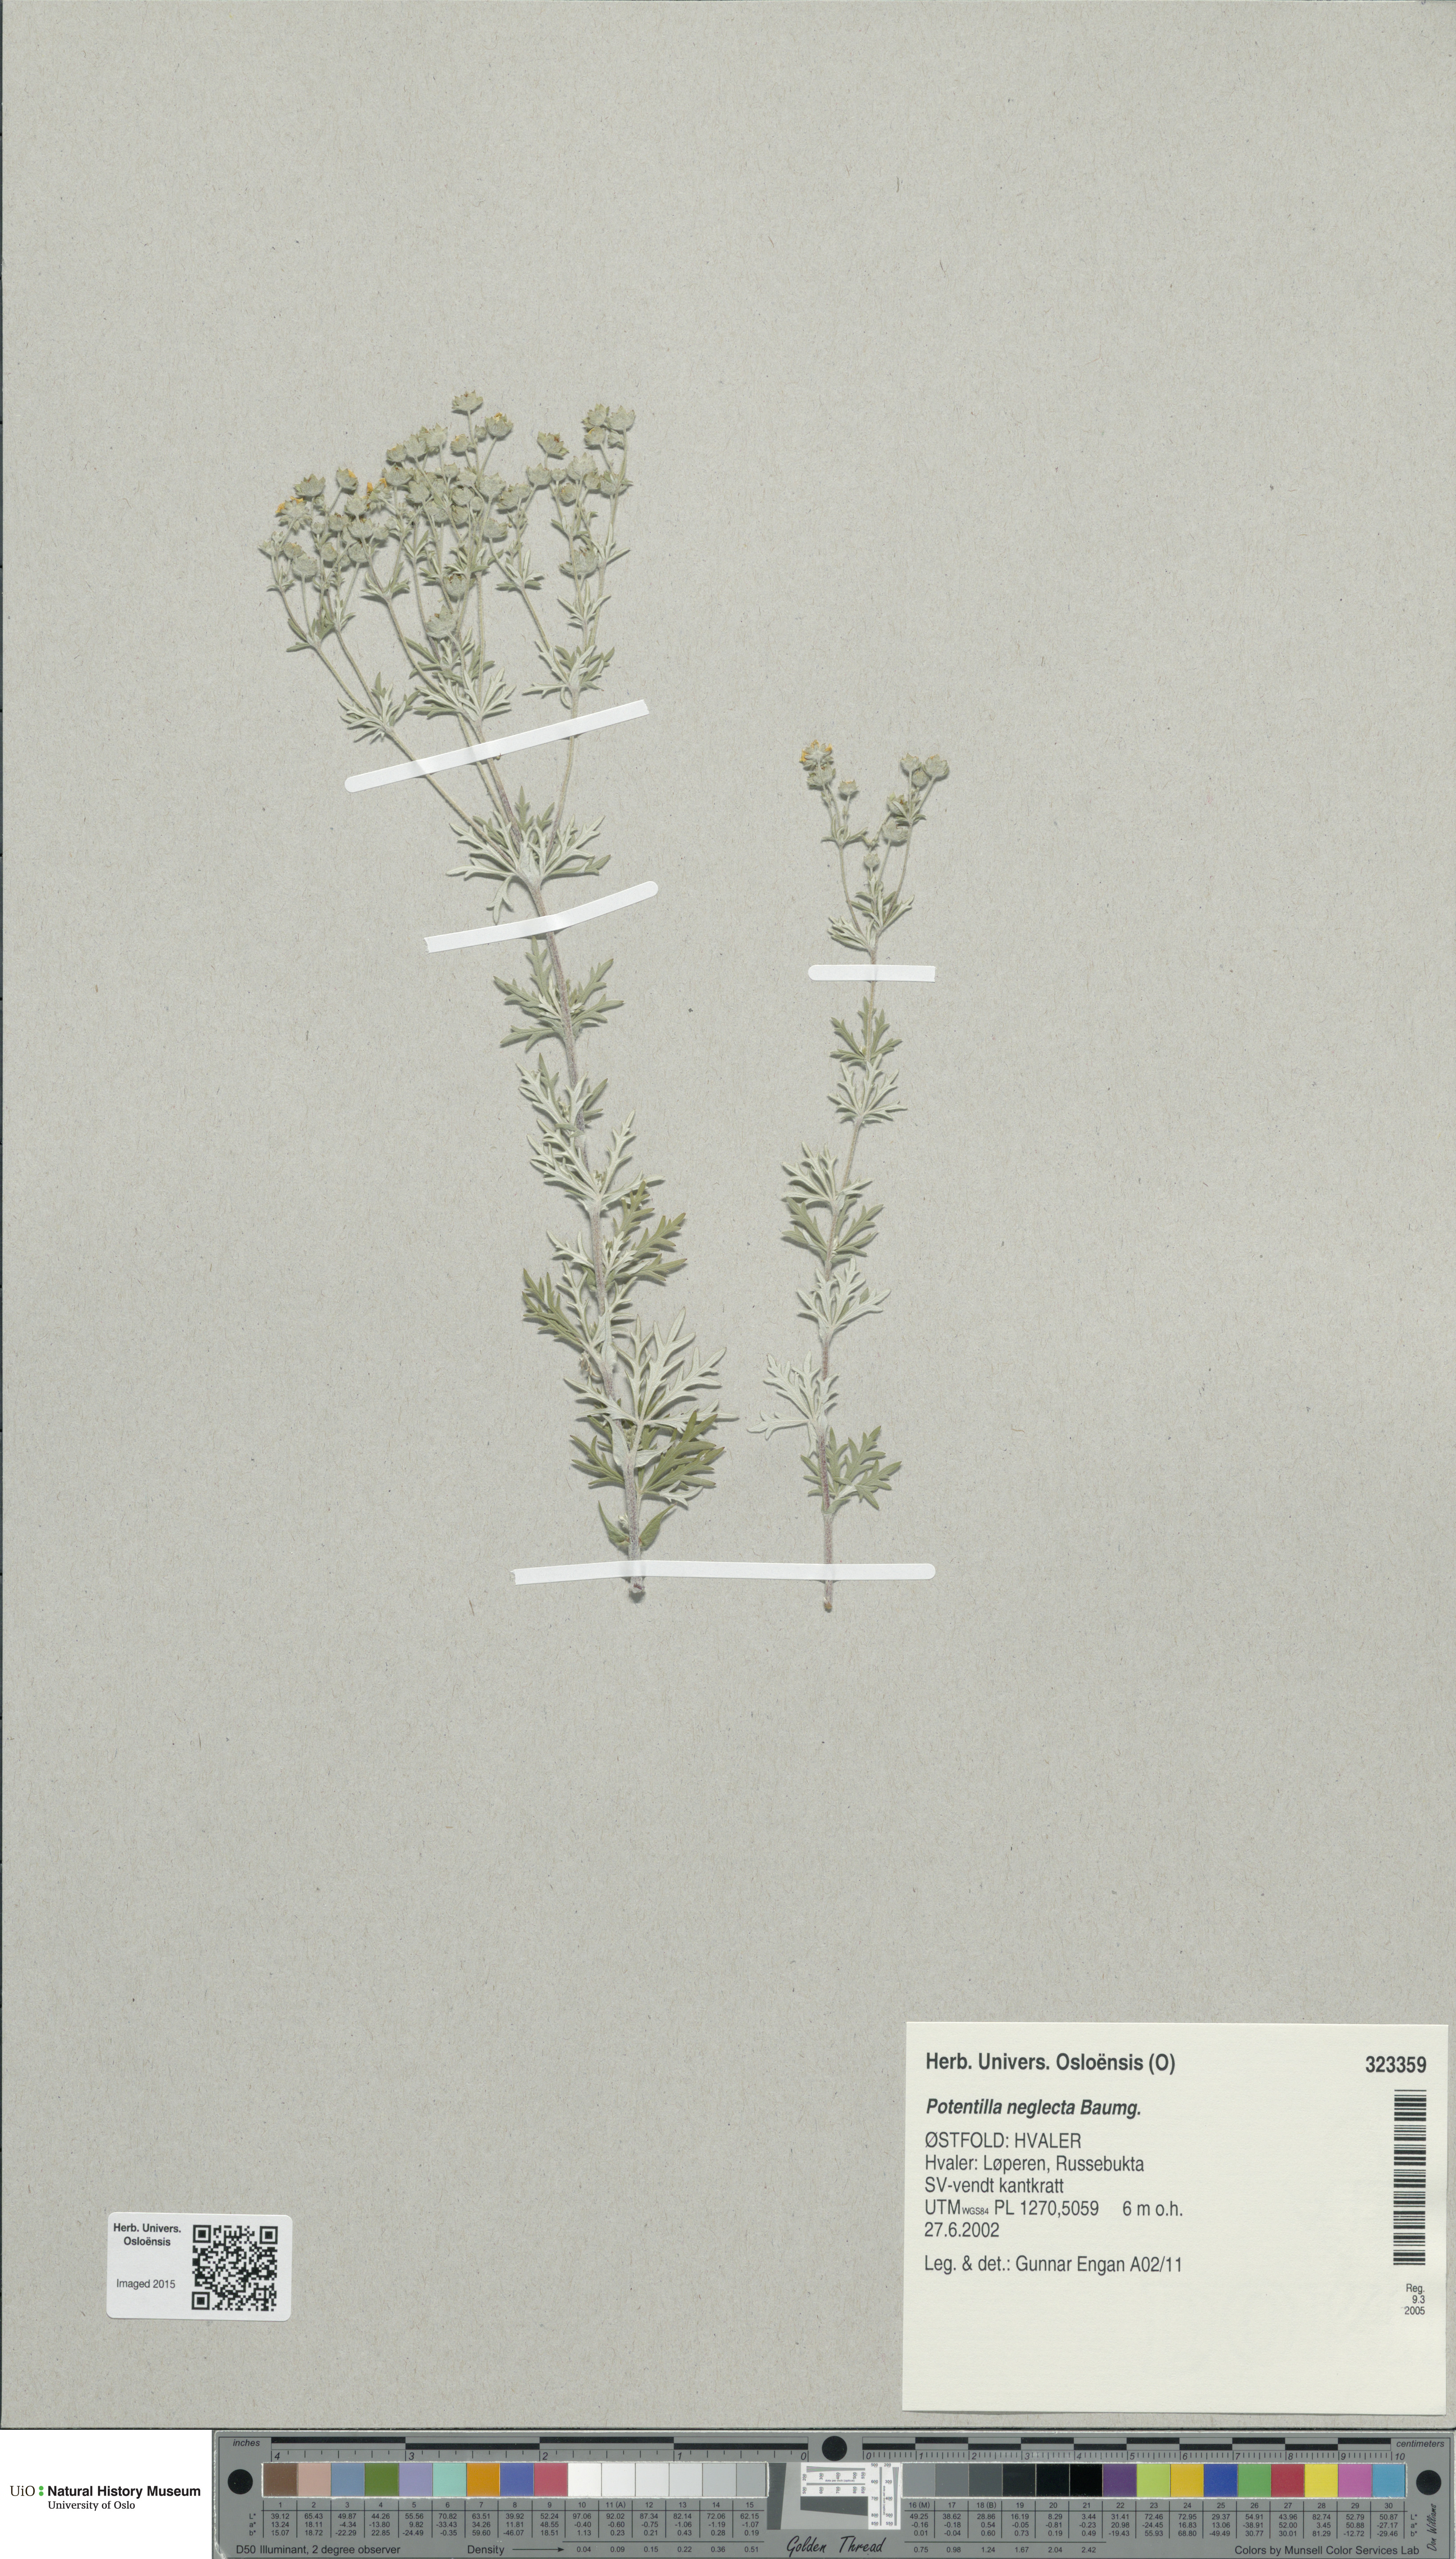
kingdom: Plantae
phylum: Tracheophyta
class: Magnoliopsida
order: Rosales
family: Rosaceae
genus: Potentilla
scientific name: Potentilla neglecta
